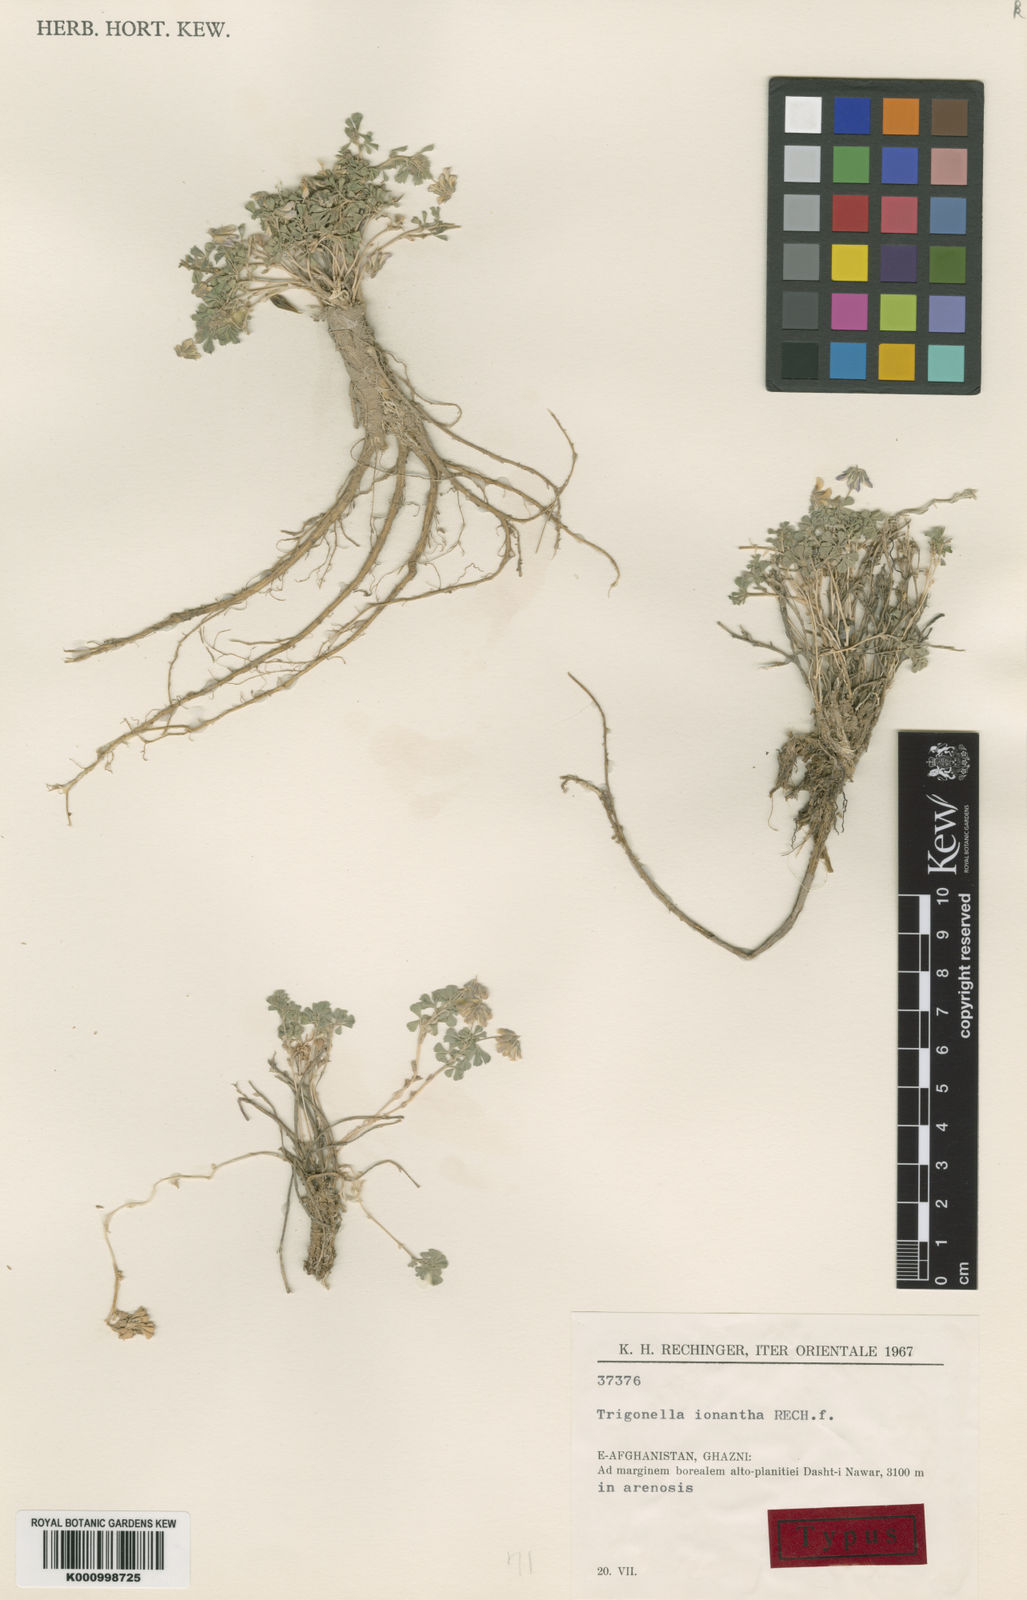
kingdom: Plantae
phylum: Tracheophyta
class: Magnoliopsida
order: Fabales
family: Fabaceae
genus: Trigonella
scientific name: Trigonella ionantha
